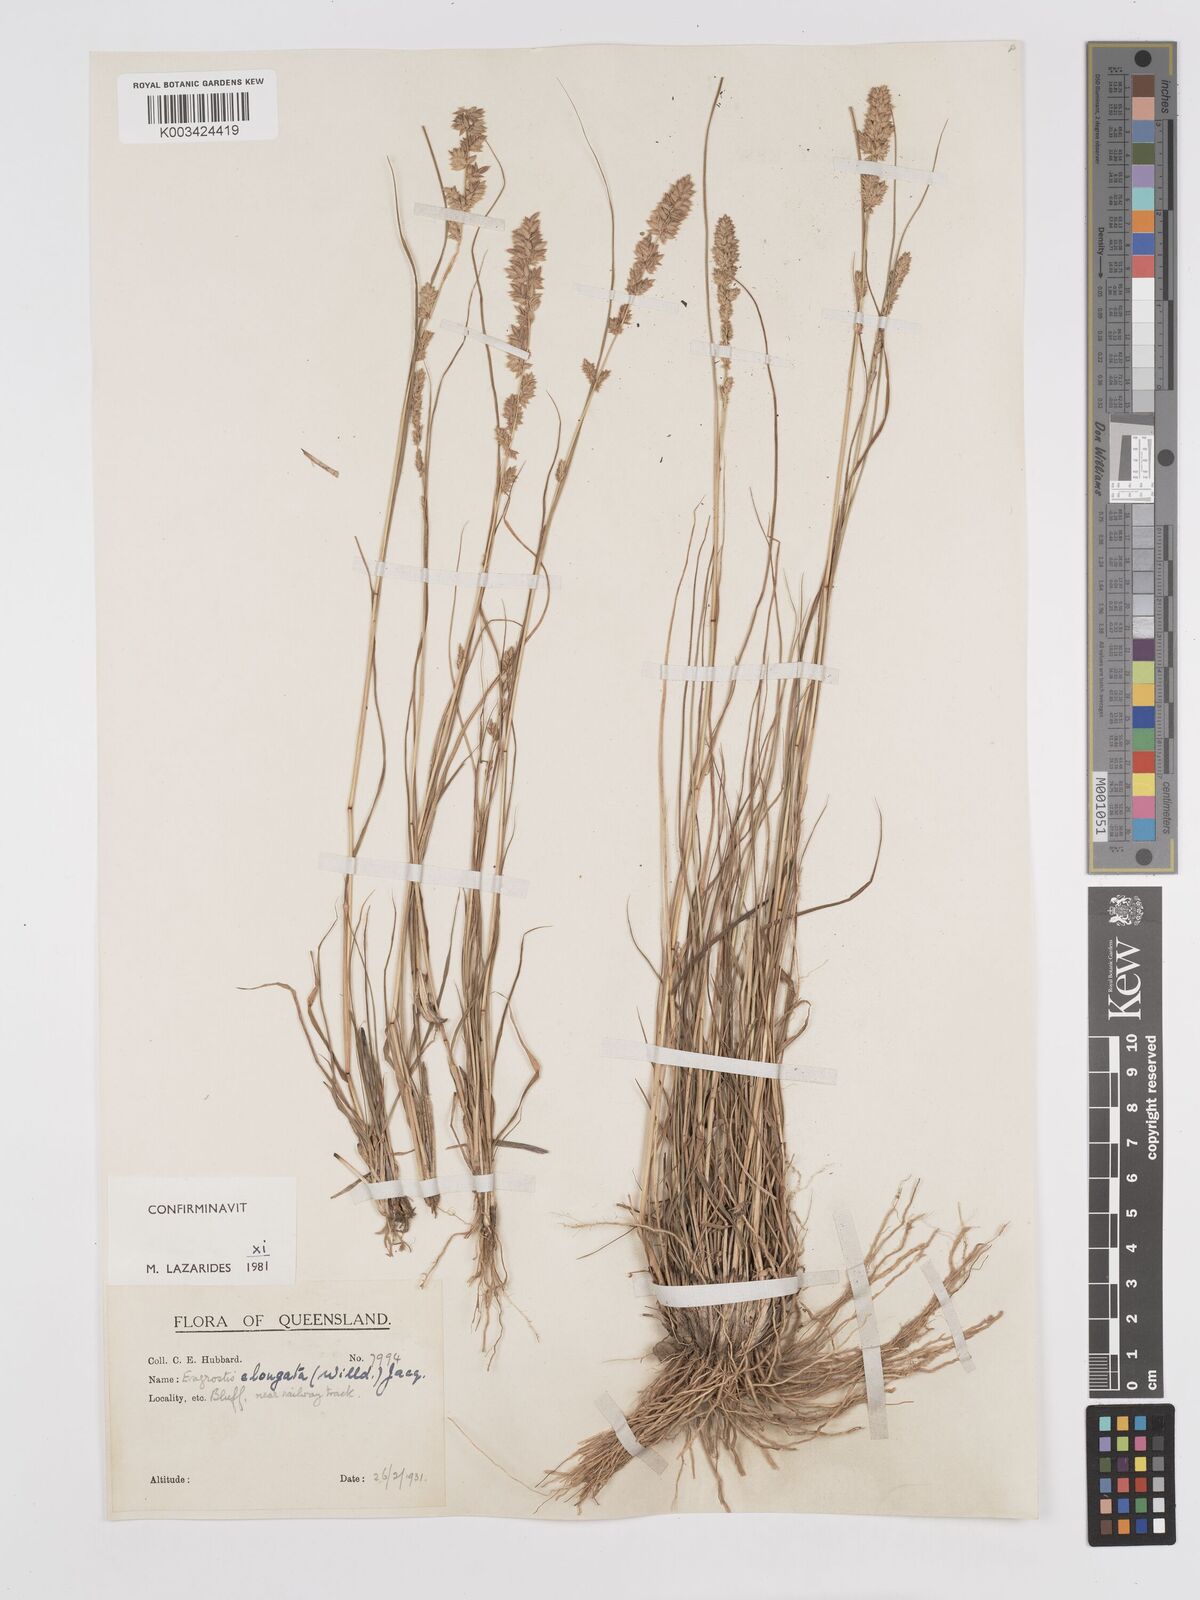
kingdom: Plantae
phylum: Tracheophyta
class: Liliopsida
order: Poales
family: Poaceae
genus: Eragrostis
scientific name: Eragrostis elongata
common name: Long lovegrass
